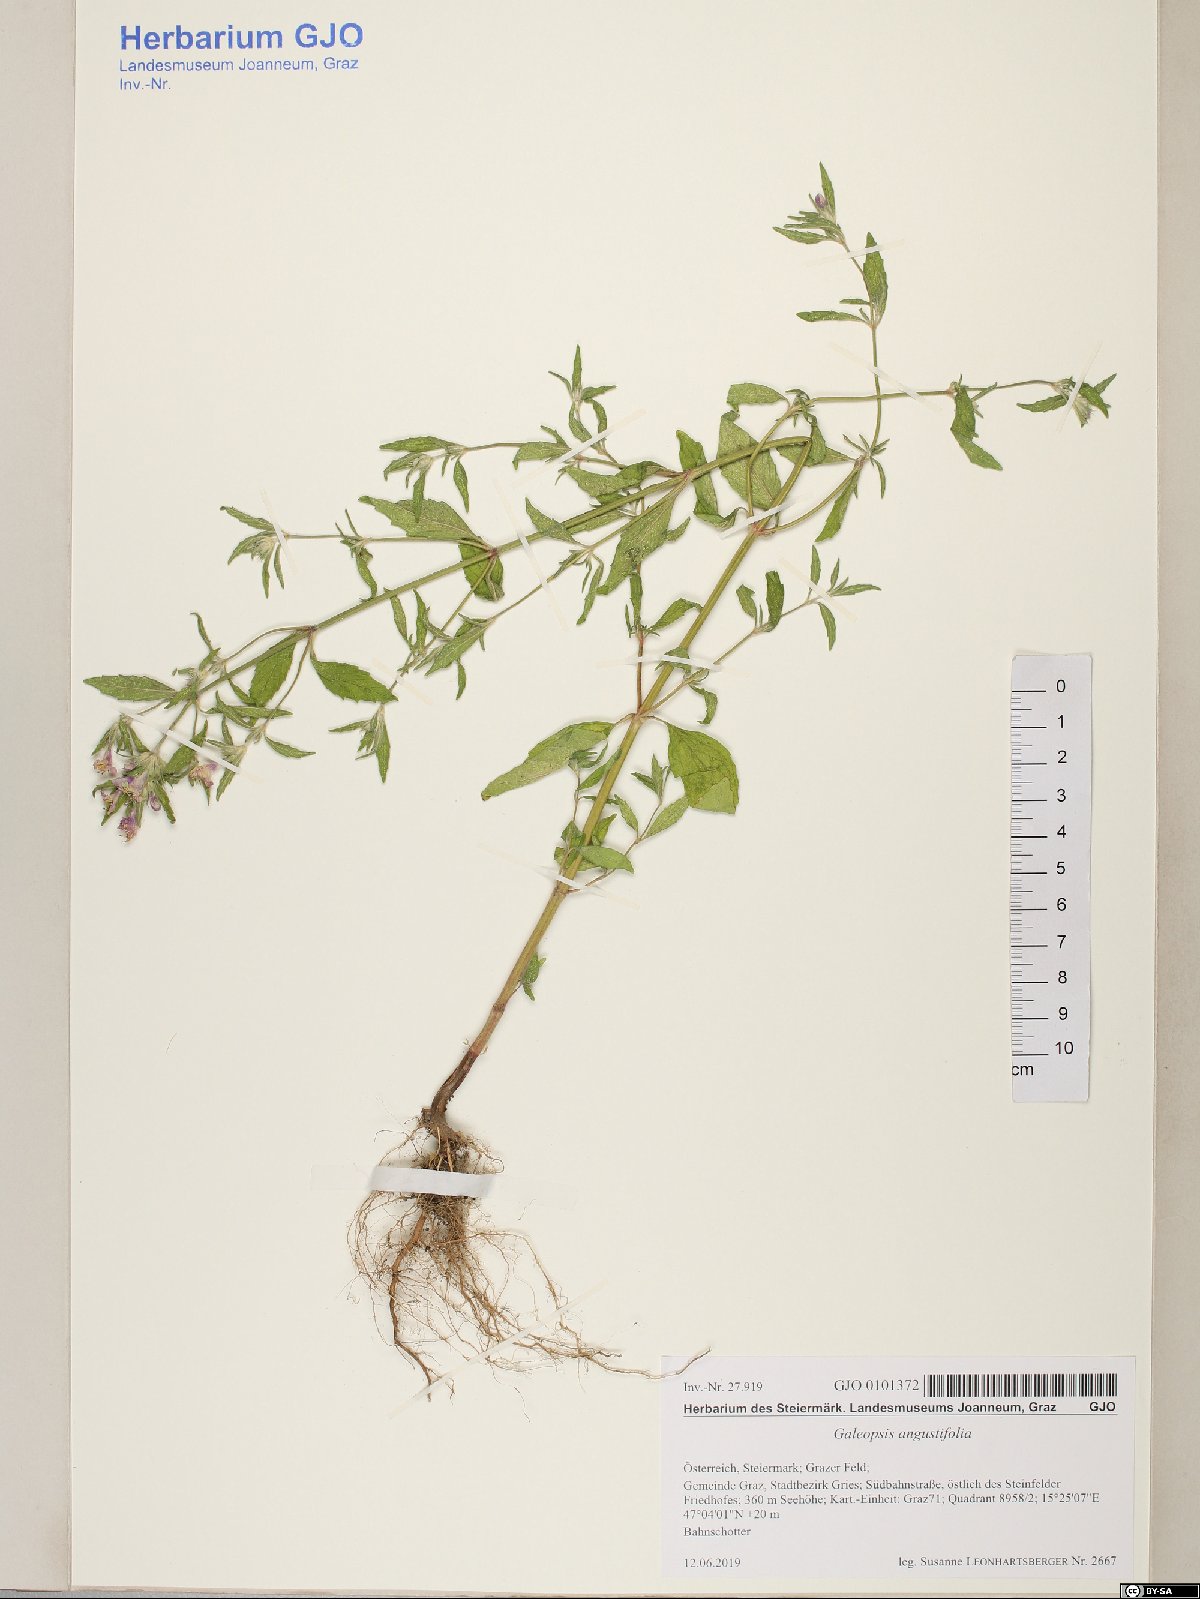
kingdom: Plantae
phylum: Tracheophyta
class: Magnoliopsida
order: Lamiales
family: Lamiaceae
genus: Galeopsis
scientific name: Galeopsis angustifolia
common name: Red hemp-nettle
